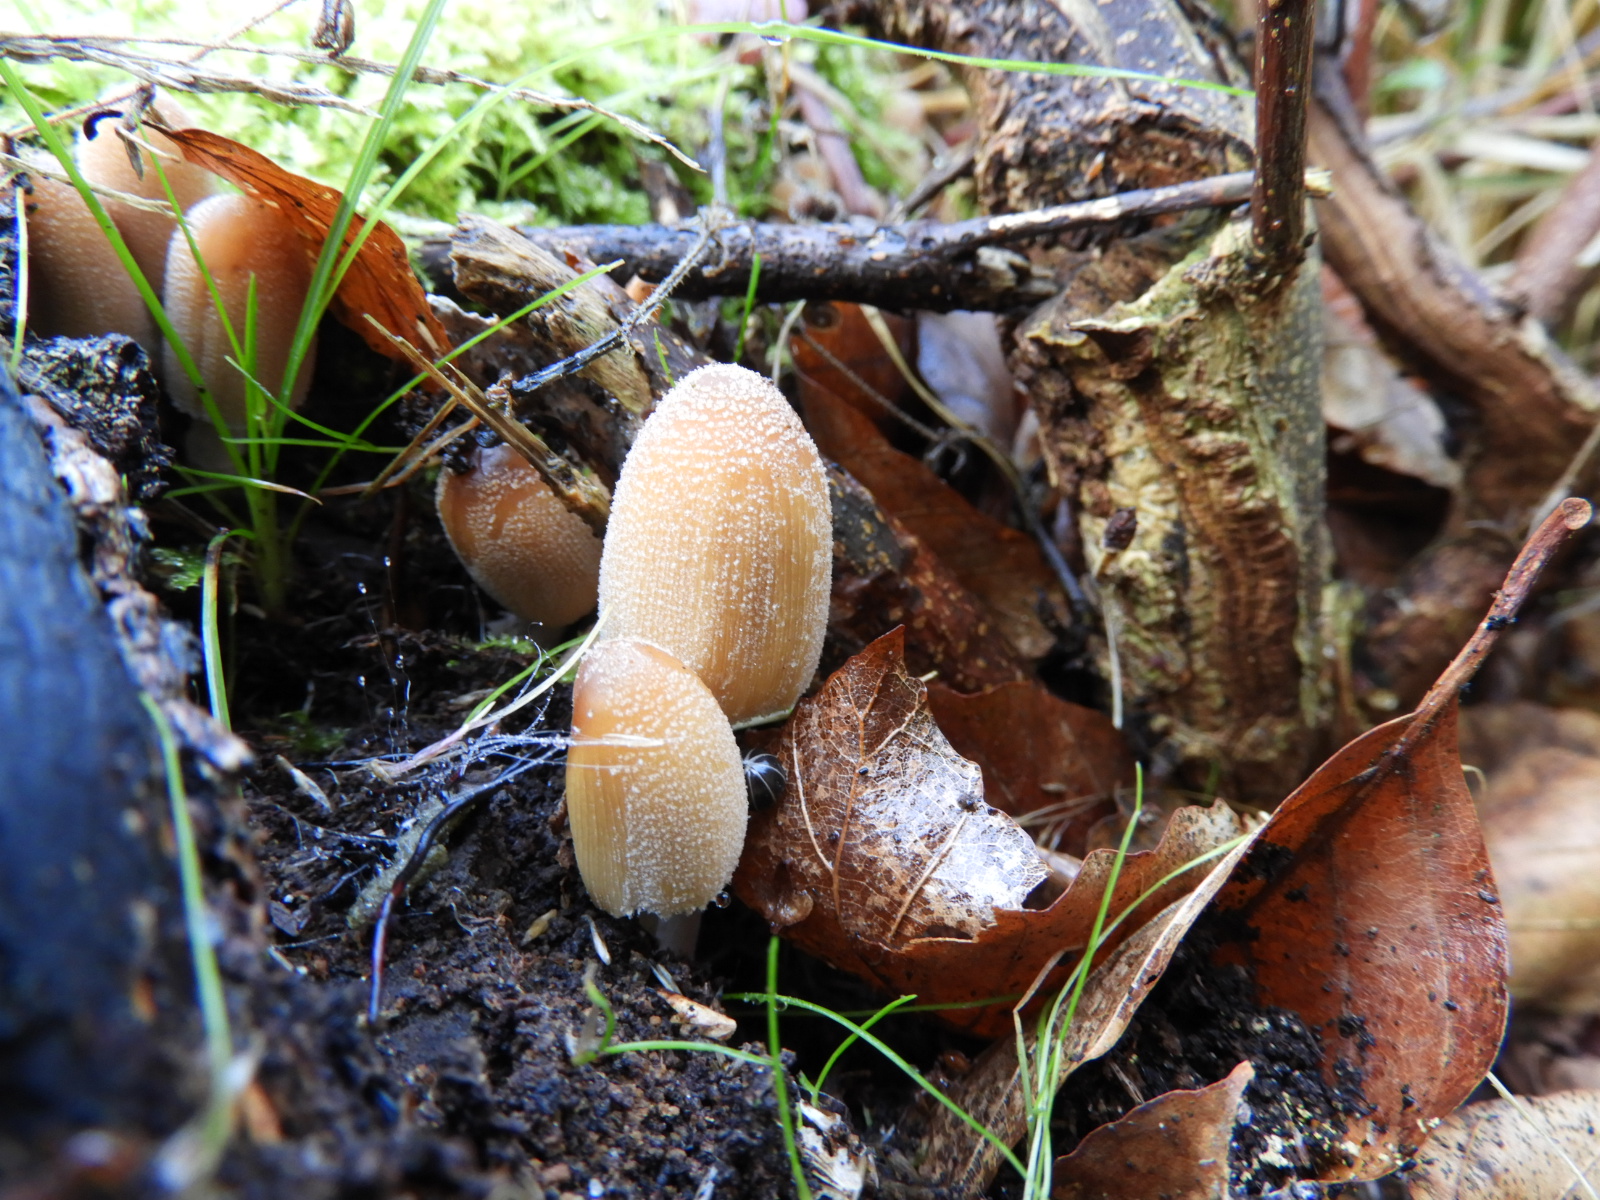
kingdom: Fungi
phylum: Basidiomycota
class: Agaricomycetes
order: Agaricales
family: Psathyrellaceae
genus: Coprinellus
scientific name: Coprinellus micaceus
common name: glimmer-blækhat
